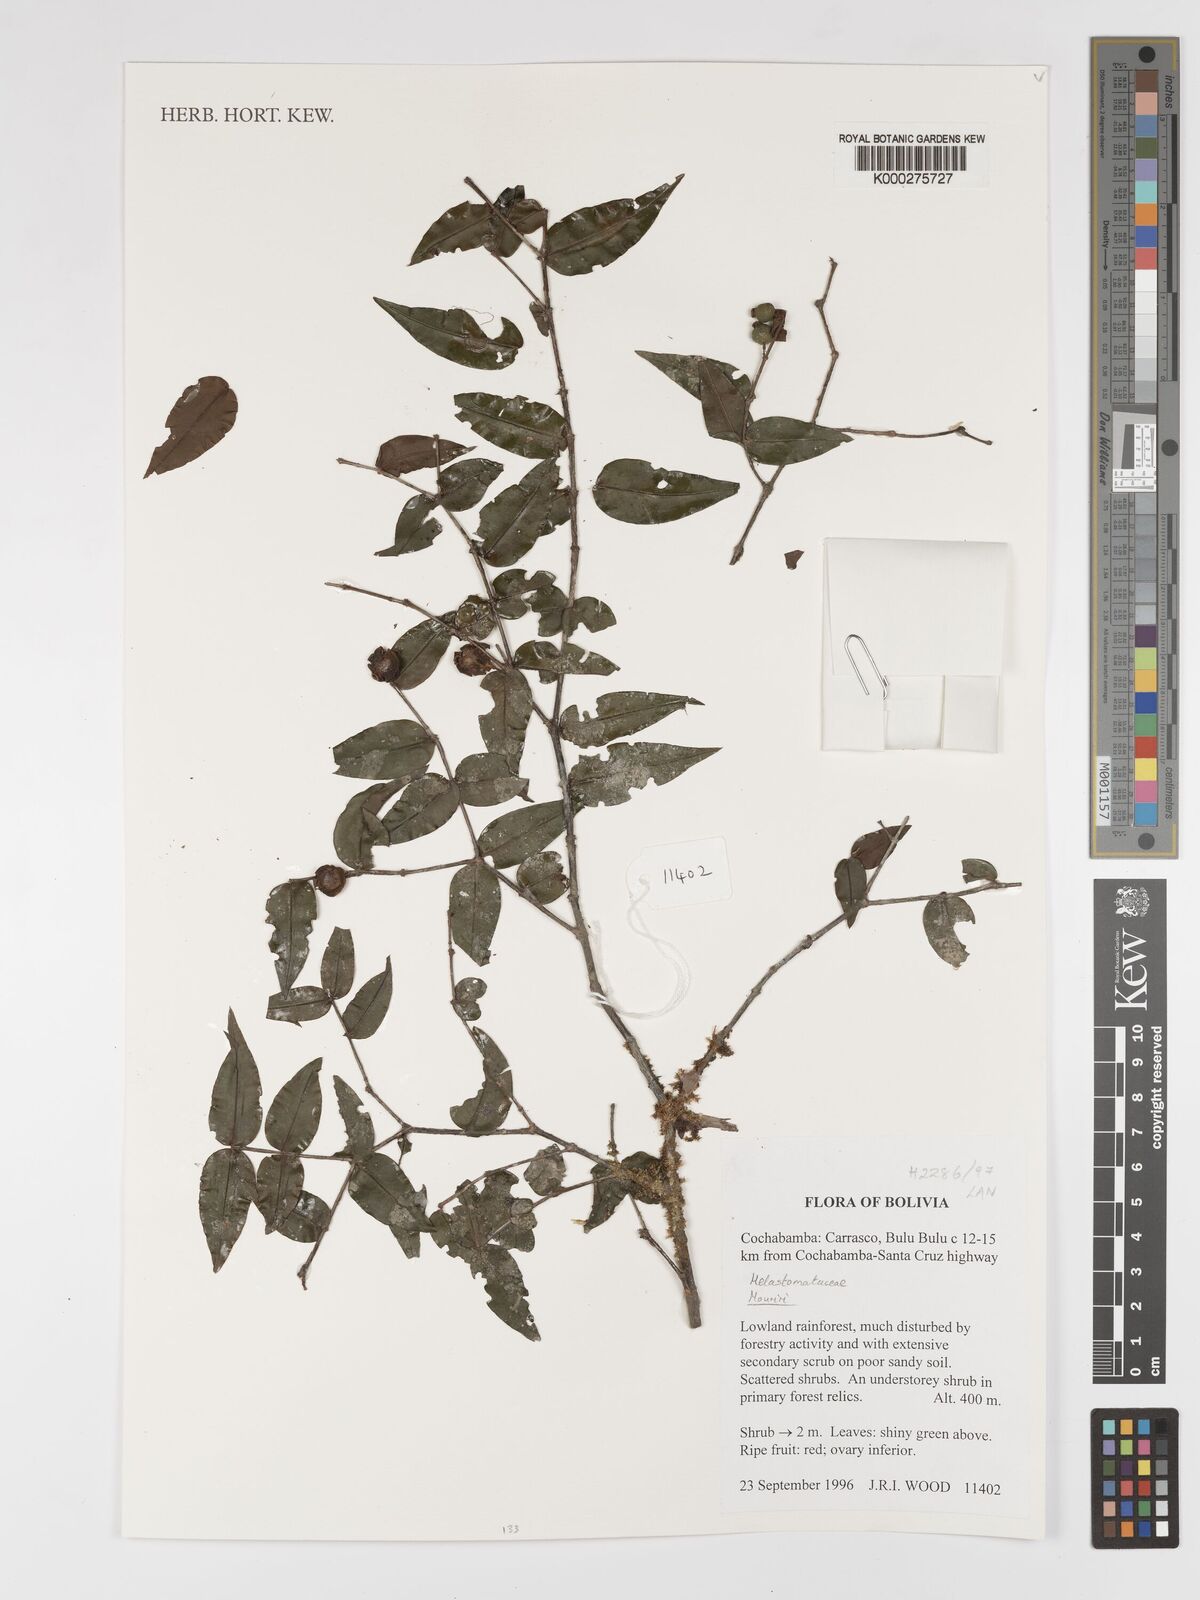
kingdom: Plantae
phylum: Tracheophyta
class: Magnoliopsida
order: Myrtales
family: Melastomataceae
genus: Mouriri
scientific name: Mouriri
